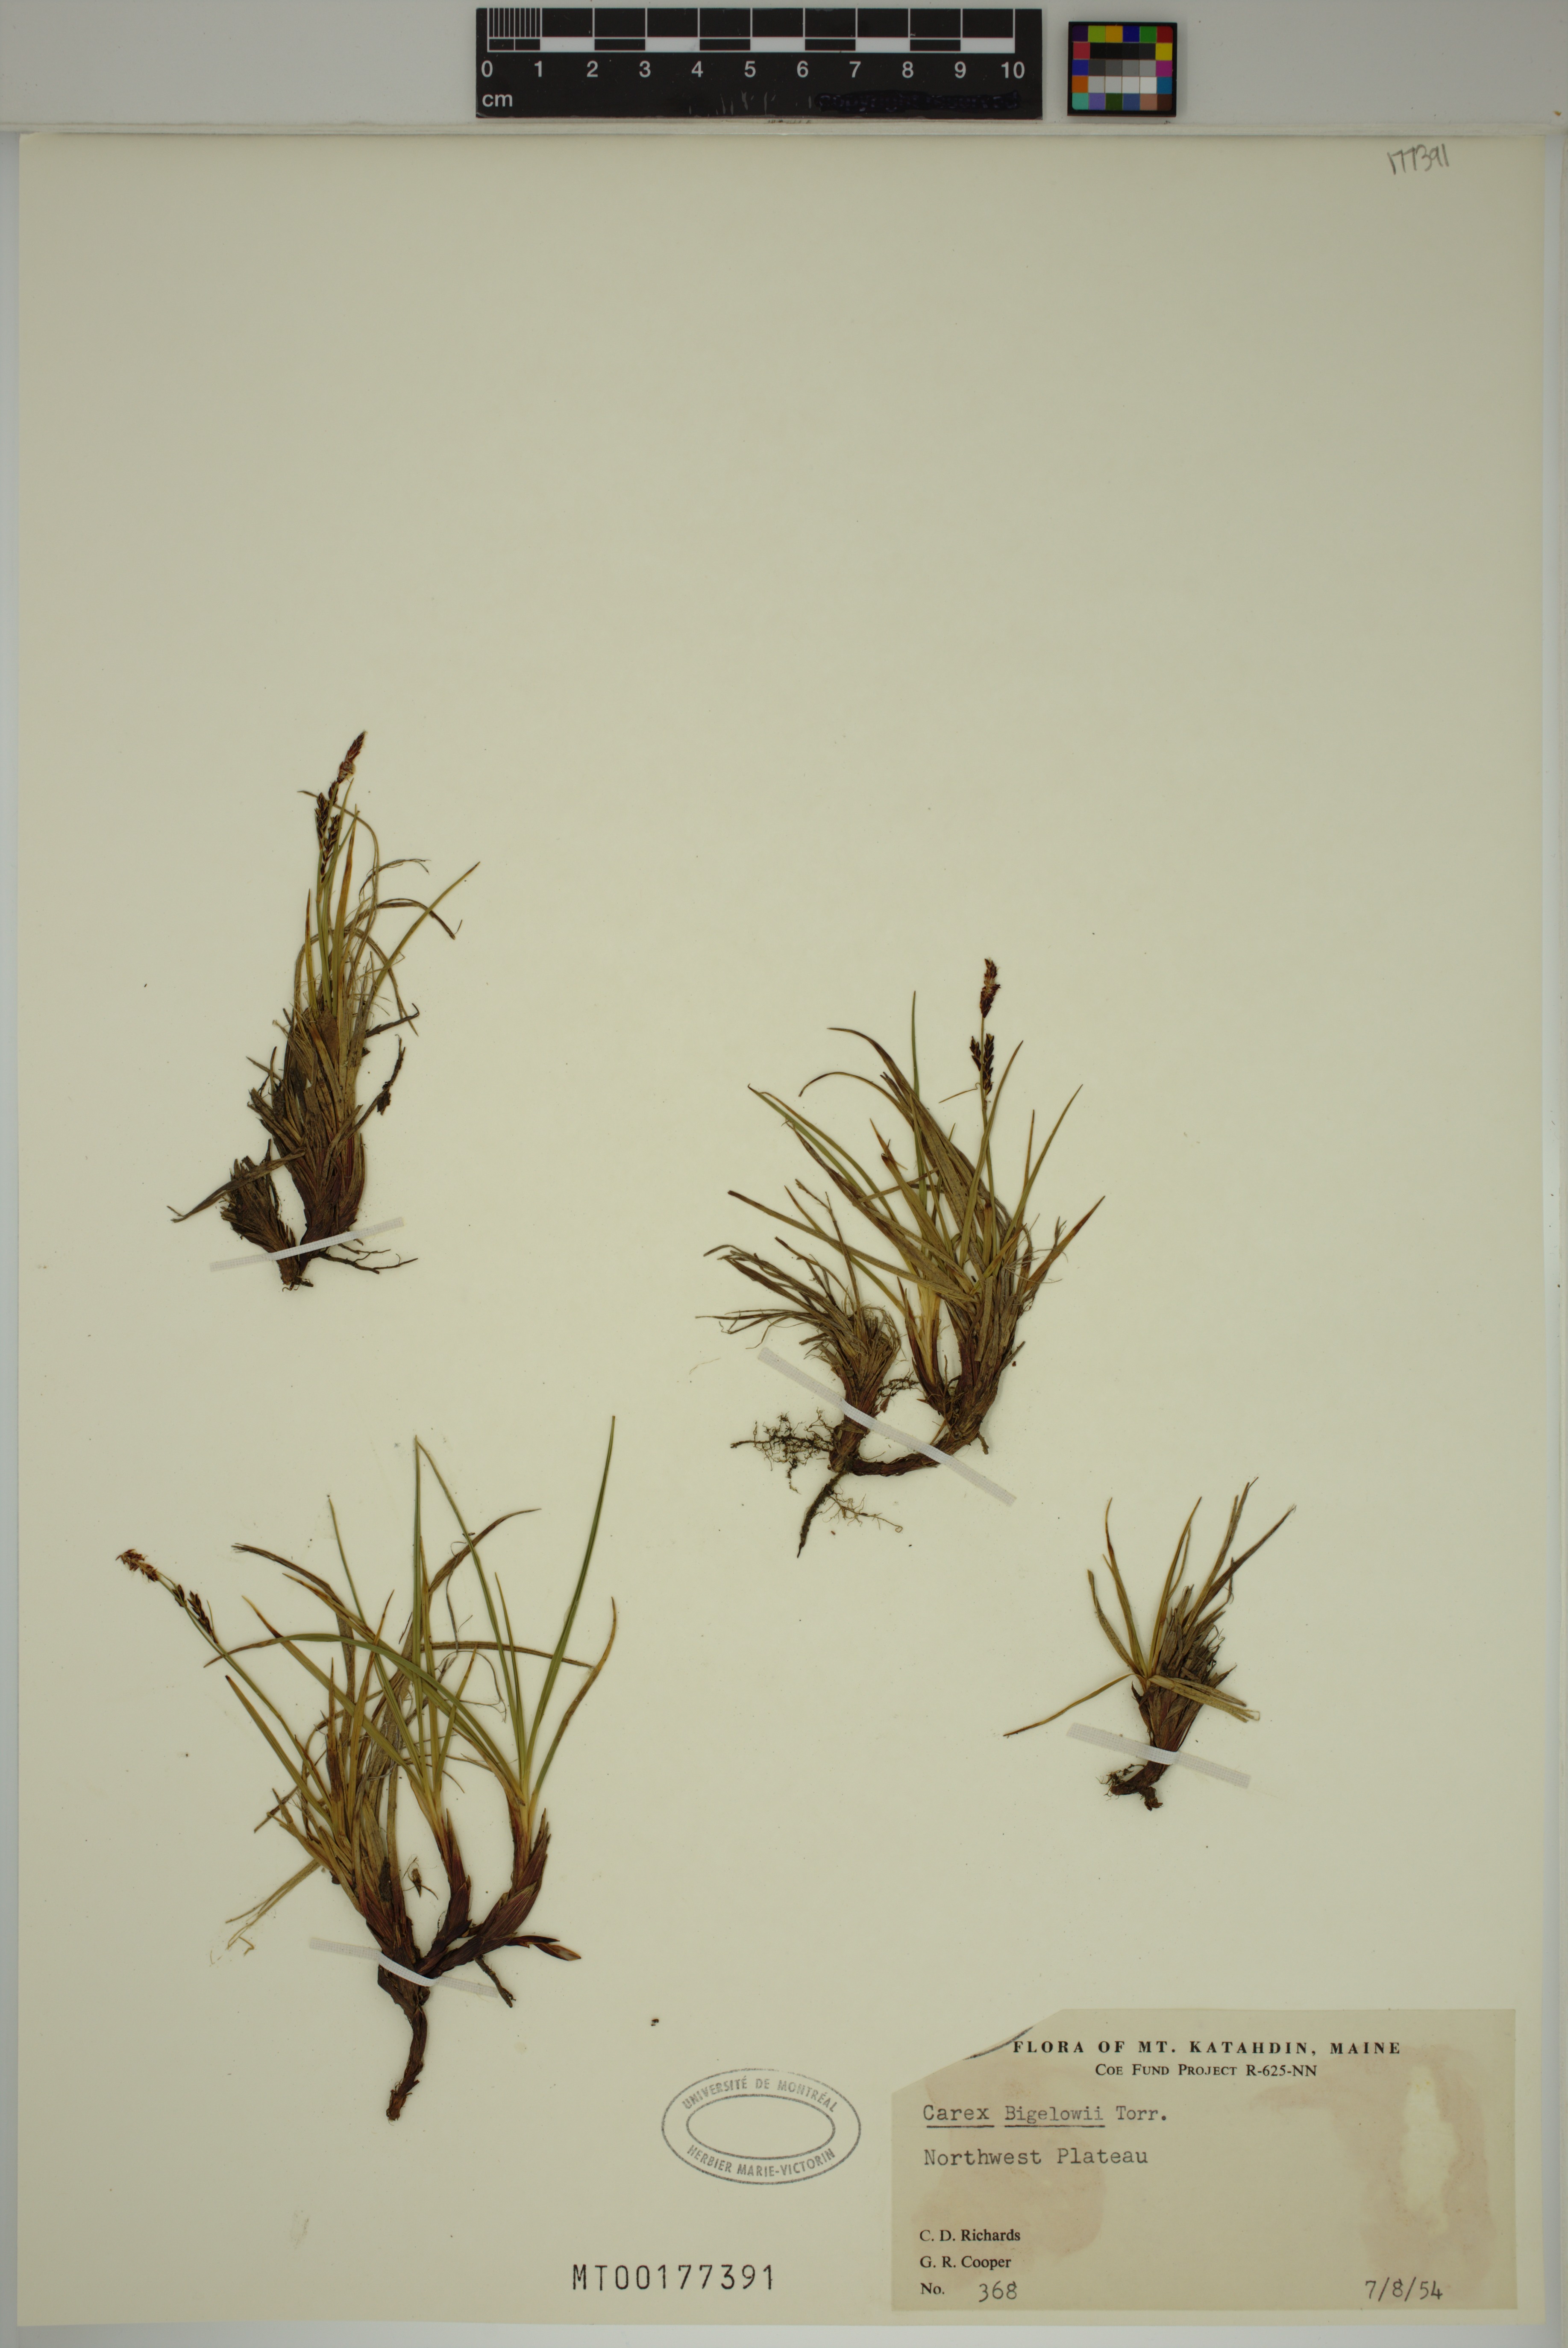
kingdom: Plantae
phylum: Tracheophyta
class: Liliopsida
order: Poales
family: Cyperaceae
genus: Carex
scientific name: Carex bigelowii
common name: Stiff sedge
